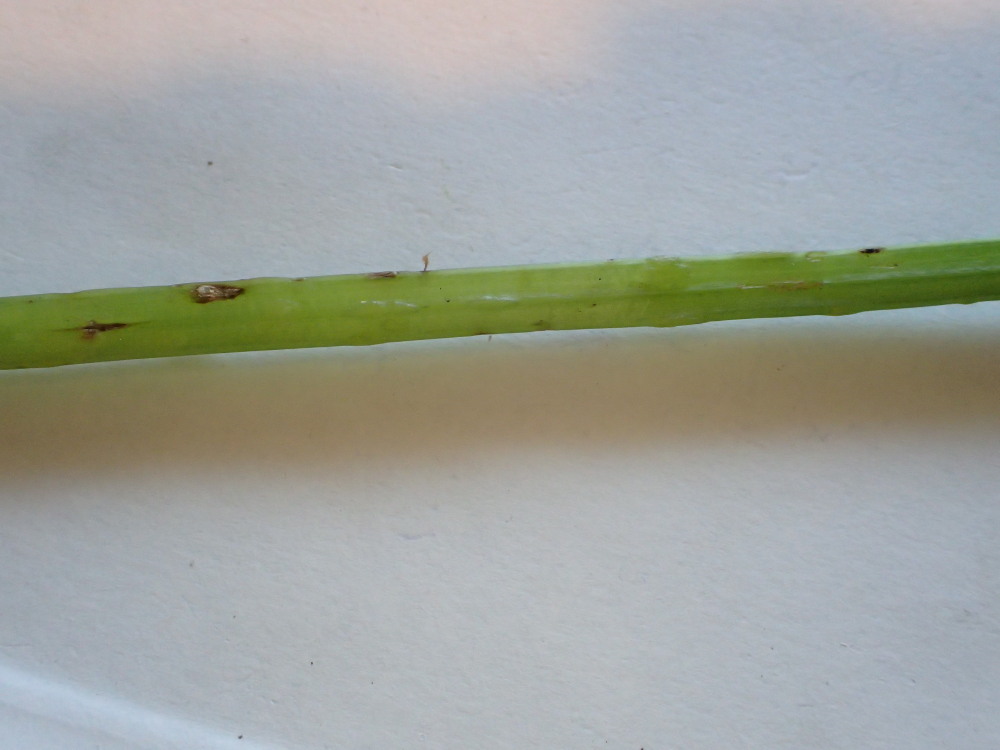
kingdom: Fungi
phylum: Ascomycota
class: Taphrinomycetes
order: Taphrinales
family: Taphrinaceae
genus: Protomyces
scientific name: Protomyces macrosporus
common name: skvalderkål-vablesæk
